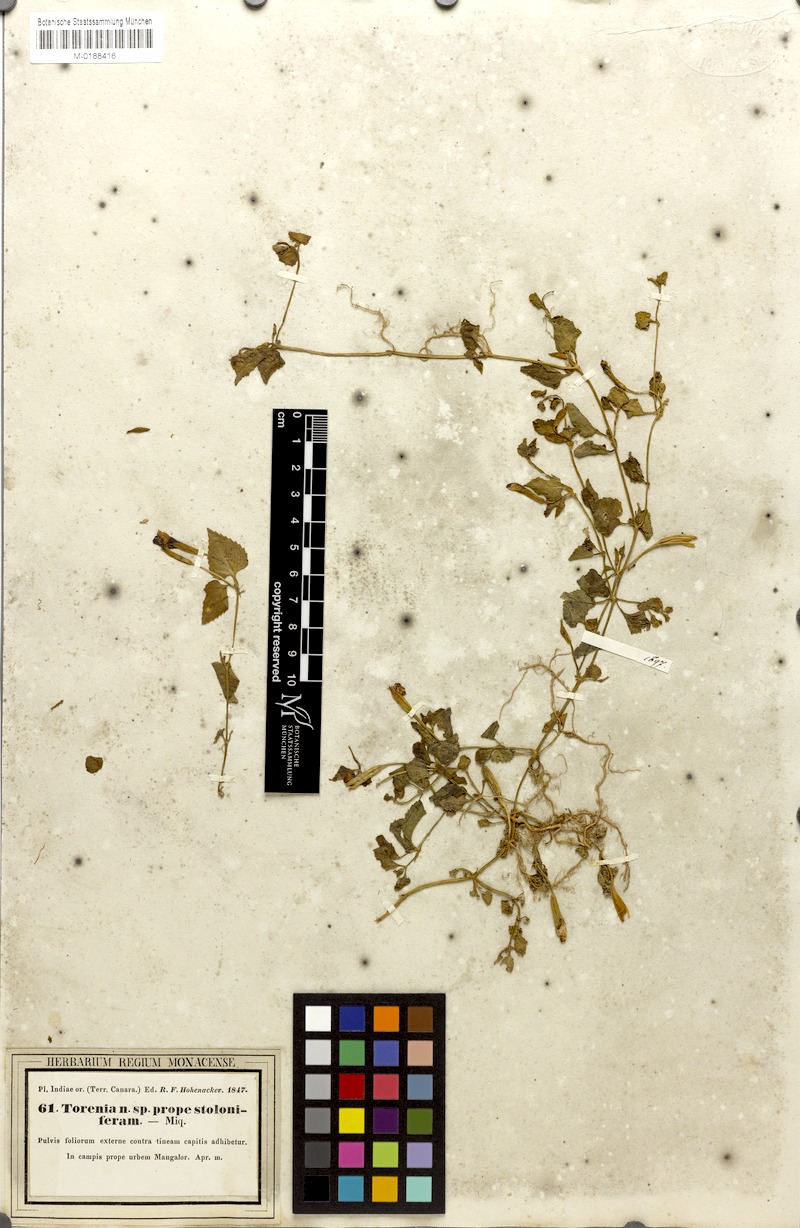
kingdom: Plantae
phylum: Tracheophyta
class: Magnoliopsida
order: Lamiales
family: Linderniaceae
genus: Torenia
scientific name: Torenia bicolor
